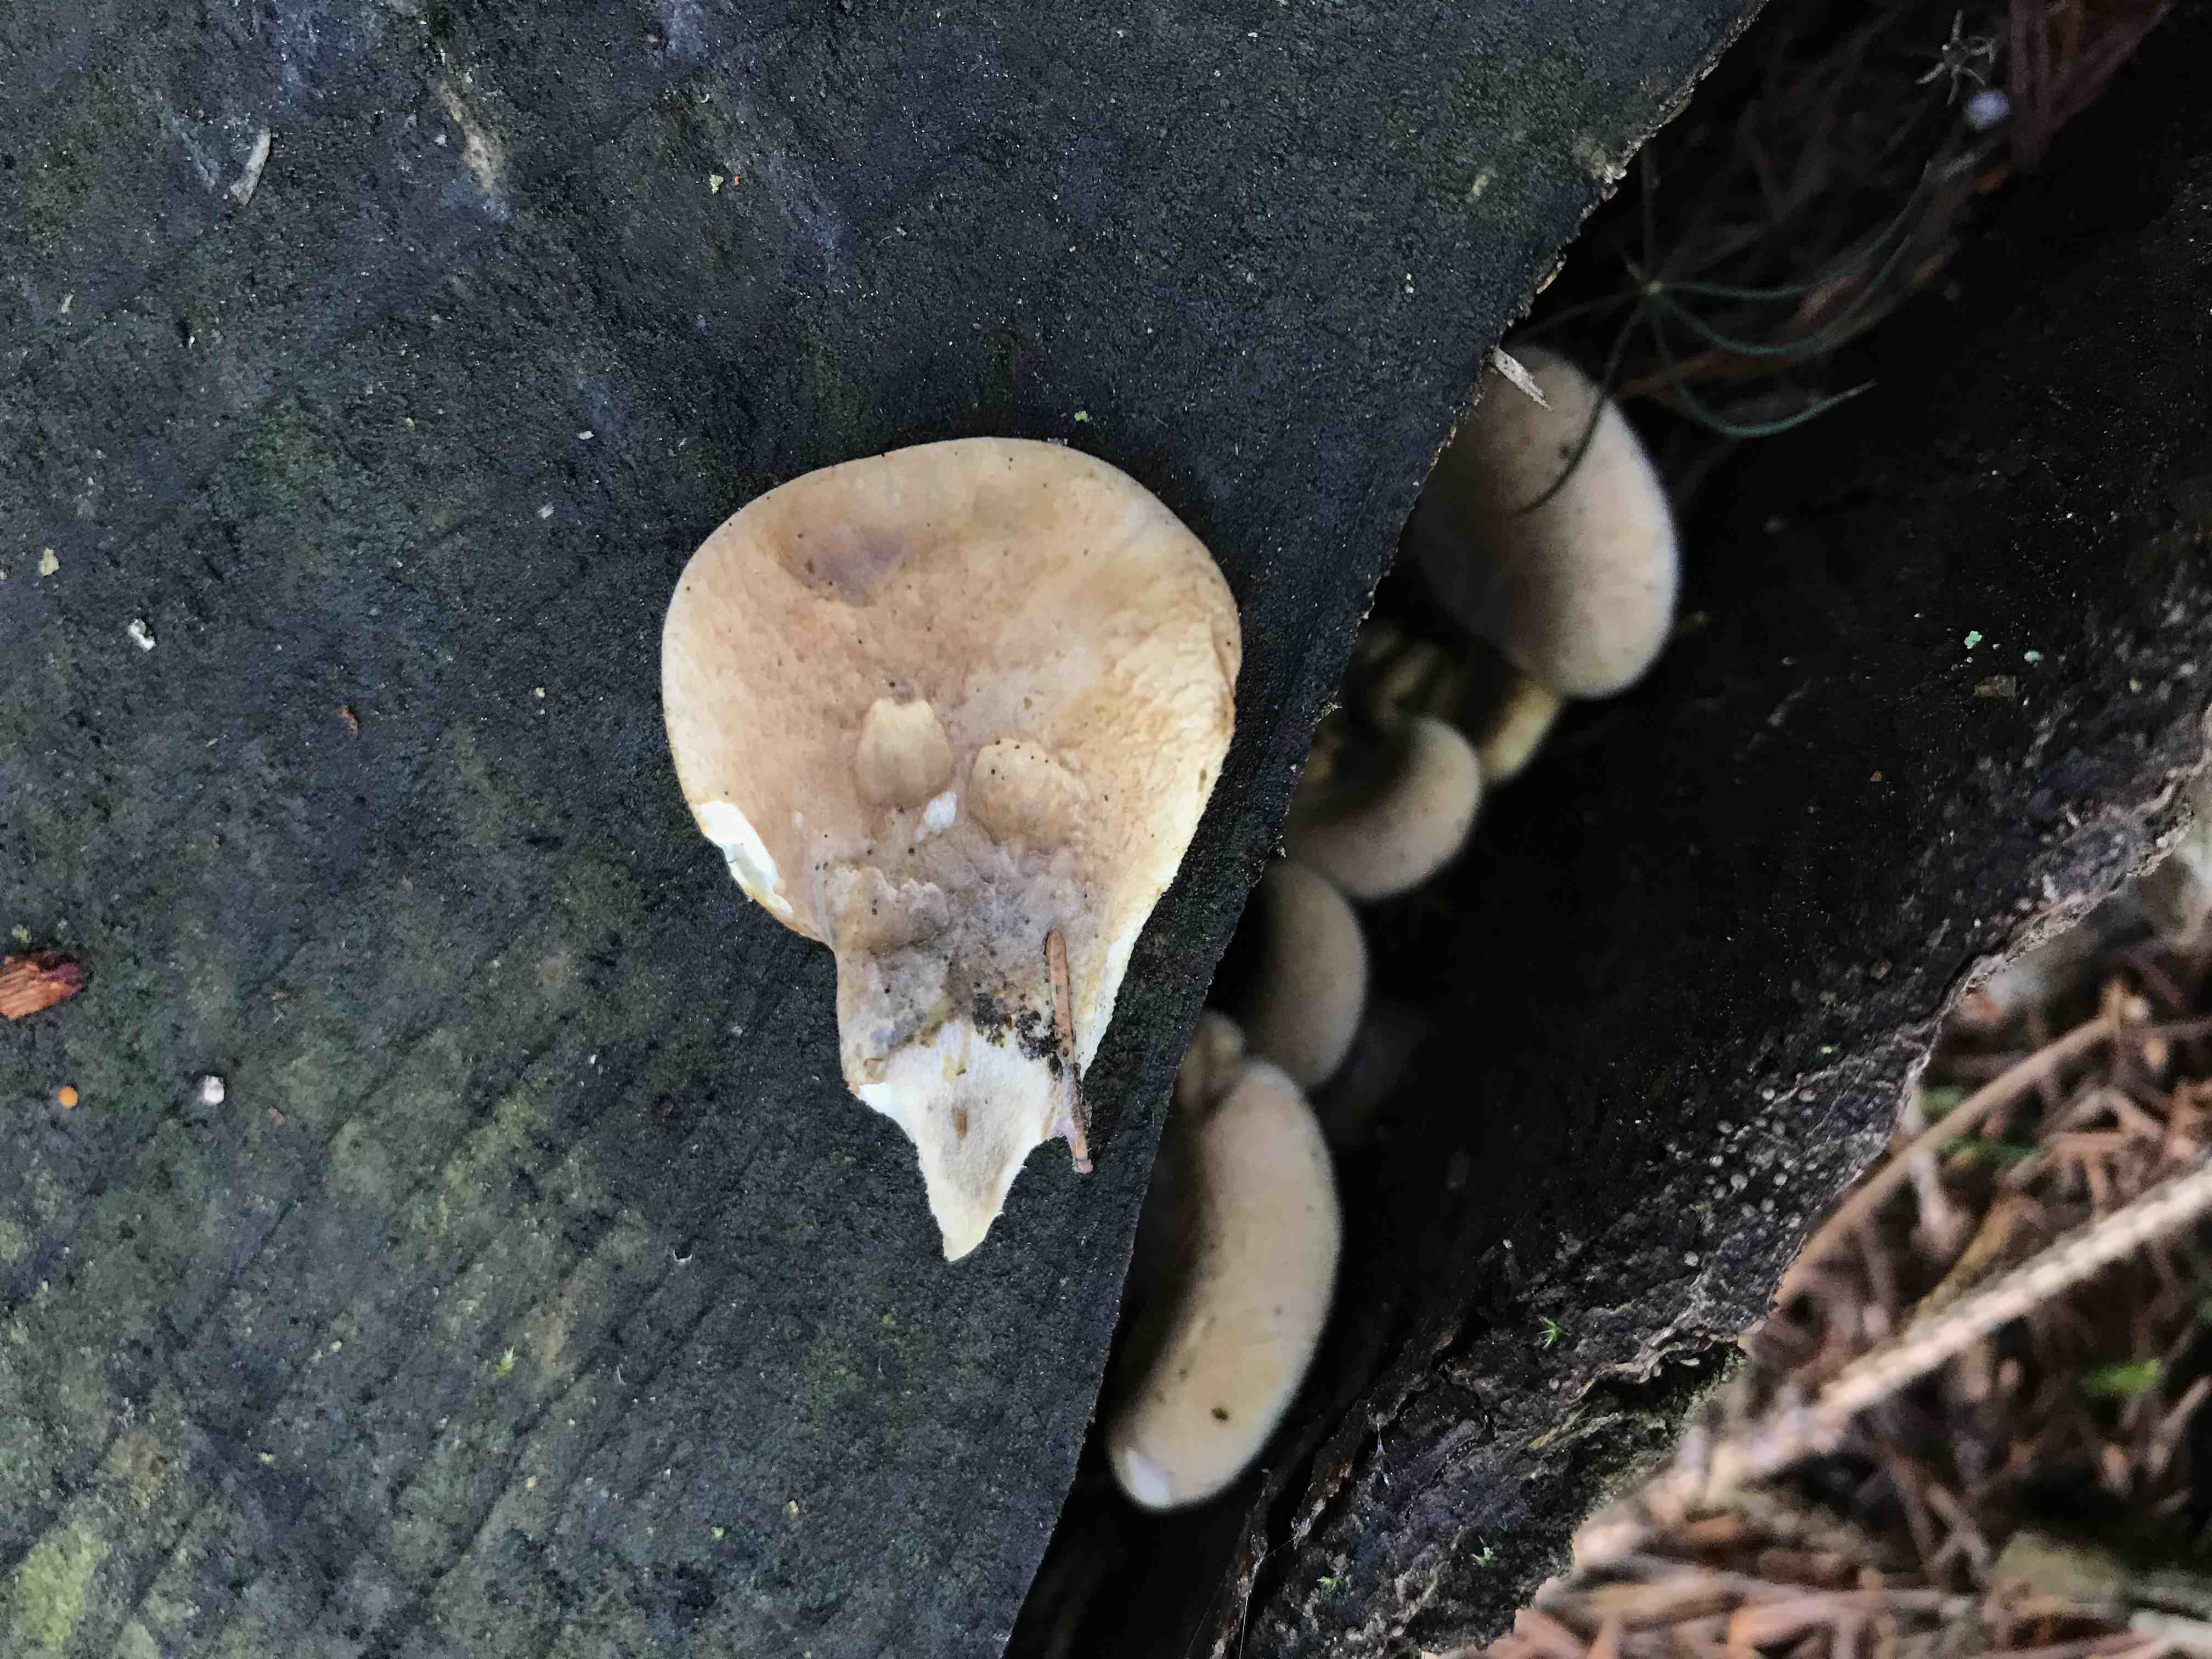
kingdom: Fungi
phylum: Basidiomycota
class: Agaricomycetes
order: Boletales
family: Tapinellaceae
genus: Tapinella
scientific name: Tapinella panuoides
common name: tømmer-viftesvamp
